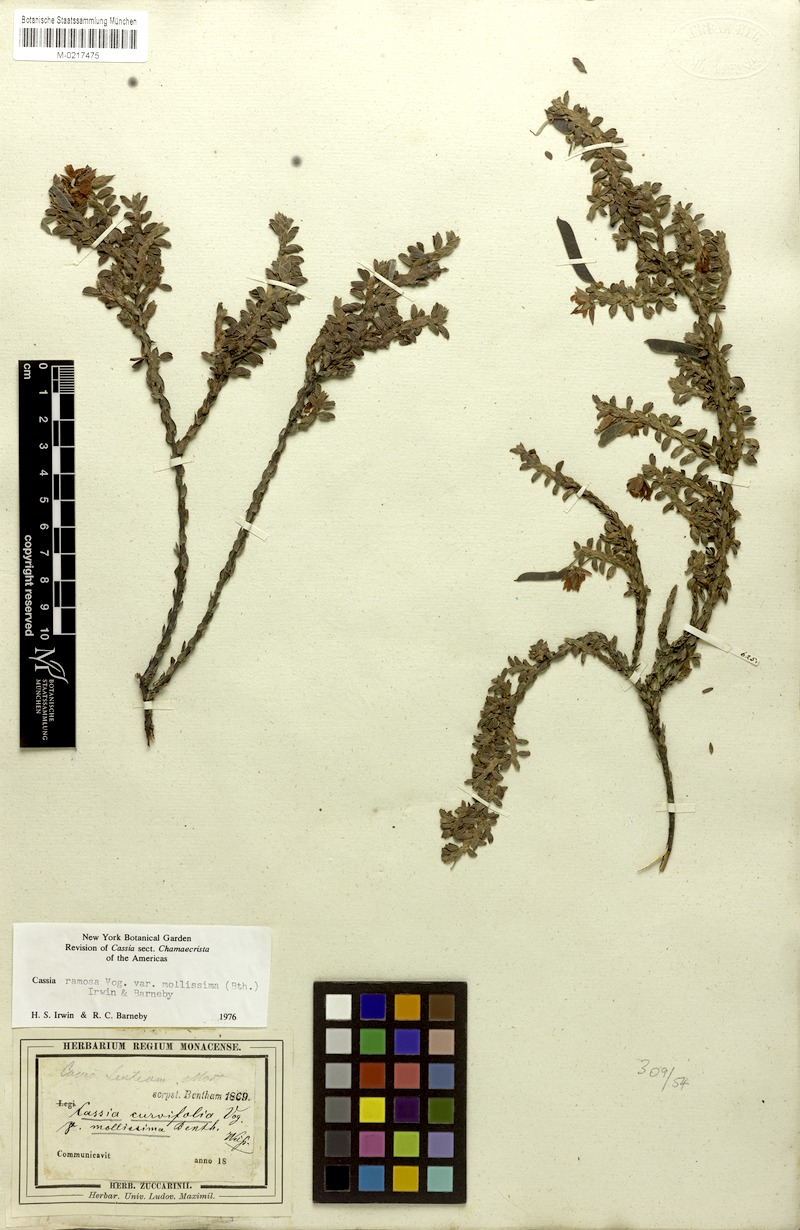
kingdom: Plantae
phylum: Tracheophyta
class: Magnoliopsida
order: Fabales
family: Fabaceae
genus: Chamaecrista
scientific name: Chamaecrista ramosa
